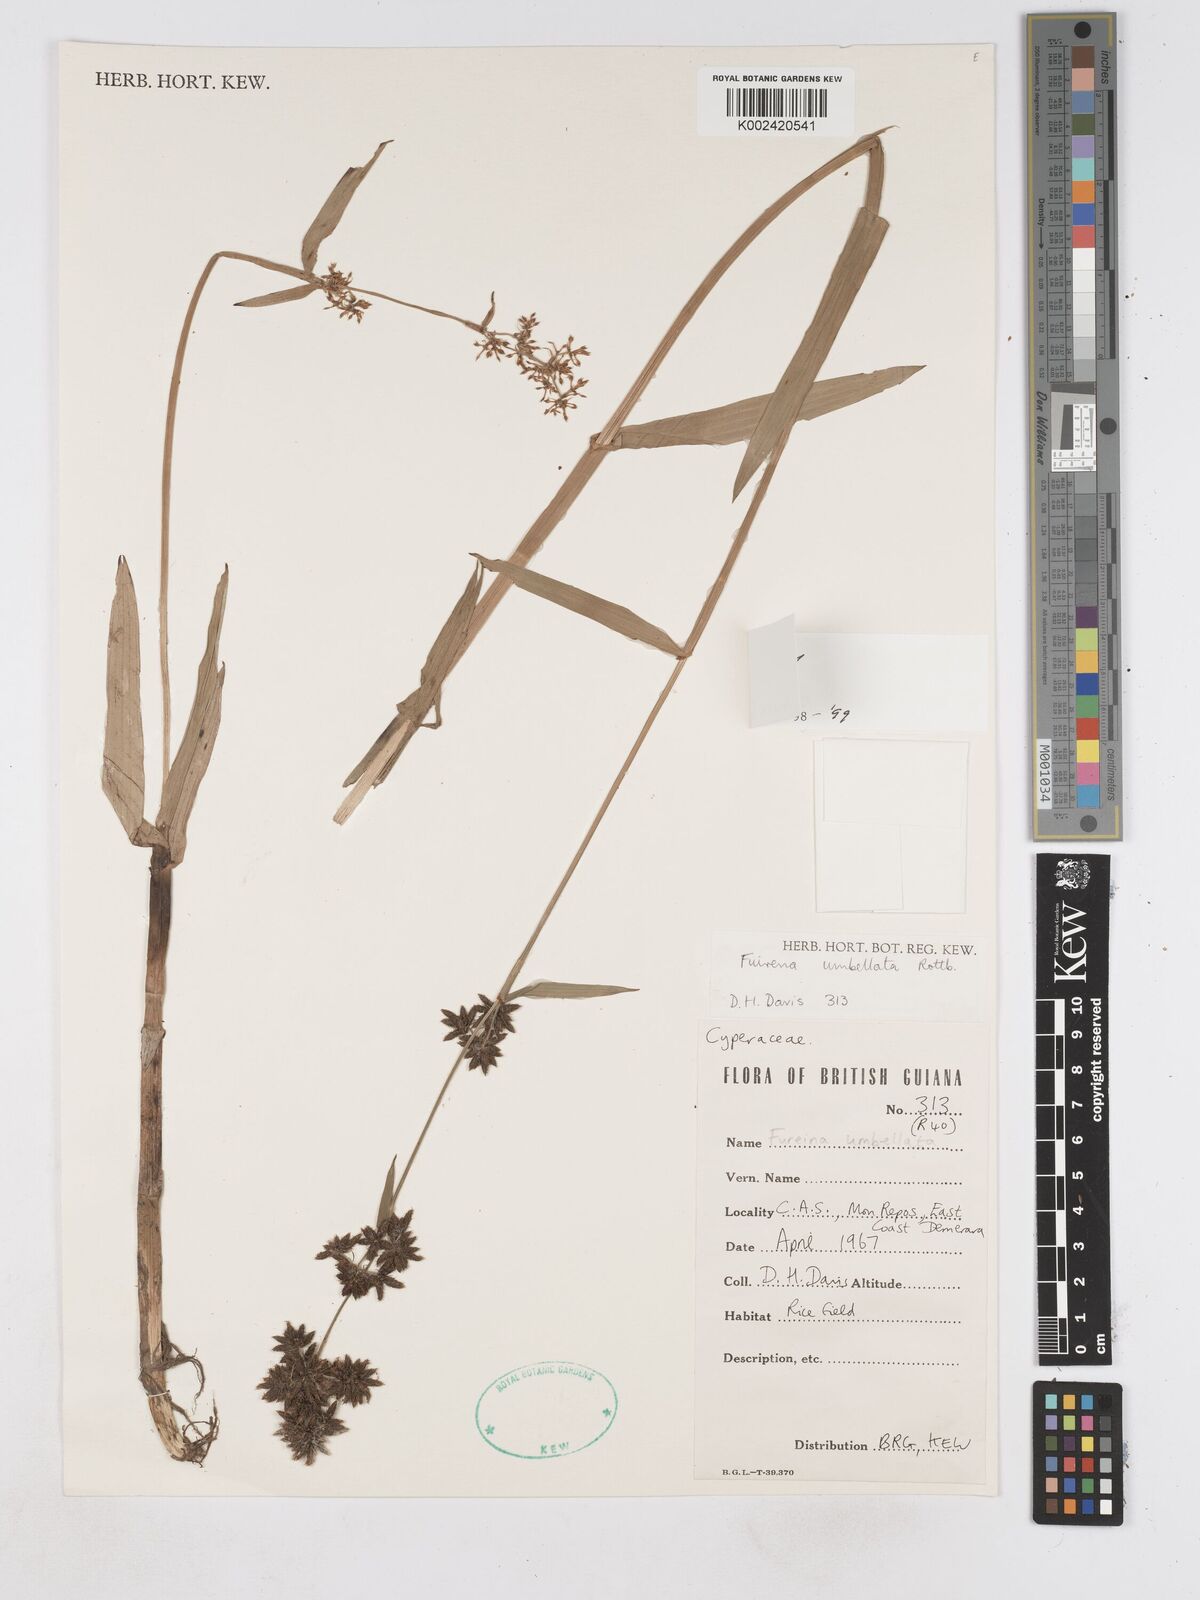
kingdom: Plantae
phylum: Tracheophyta
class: Liliopsida
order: Poales
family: Cyperaceae
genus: Fuirena
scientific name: Fuirena umbellata
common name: Yefen
